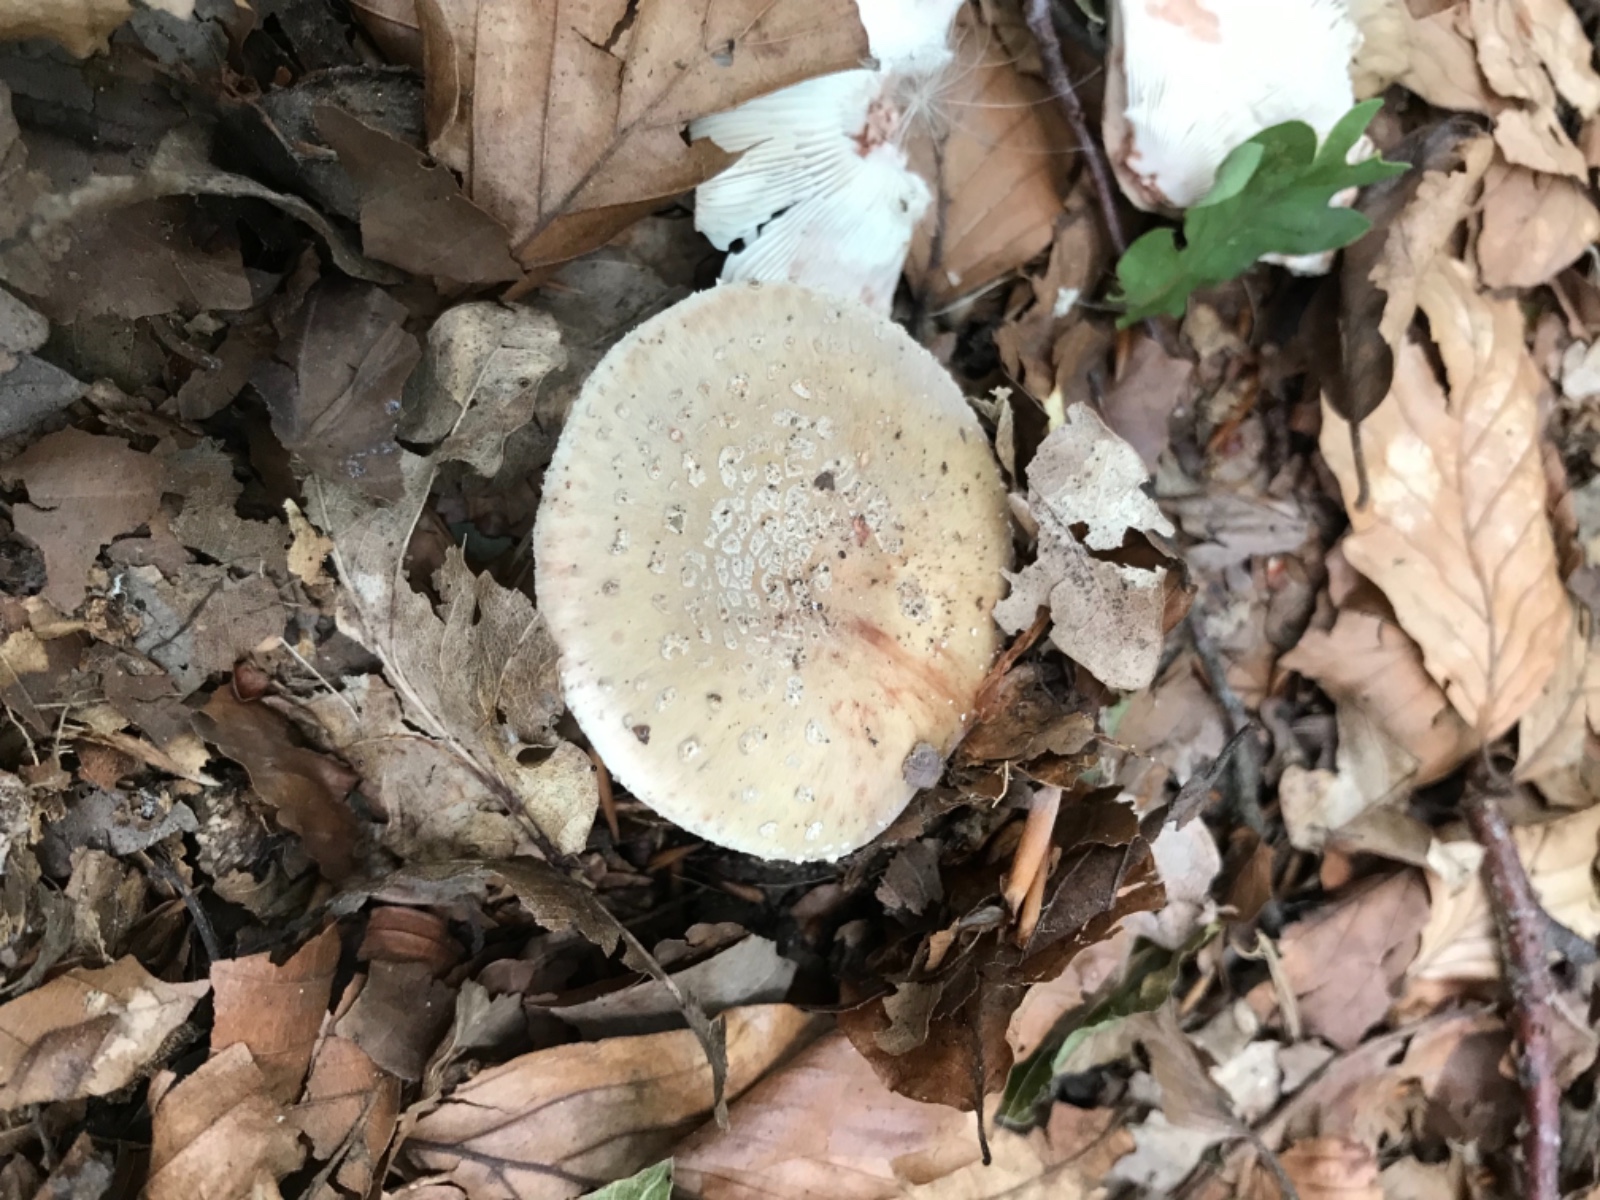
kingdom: Fungi
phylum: Basidiomycota
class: Agaricomycetes
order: Agaricales
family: Amanitaceae
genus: Amanita
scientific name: Amanita rubescens
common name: rødmende fluesvamp
